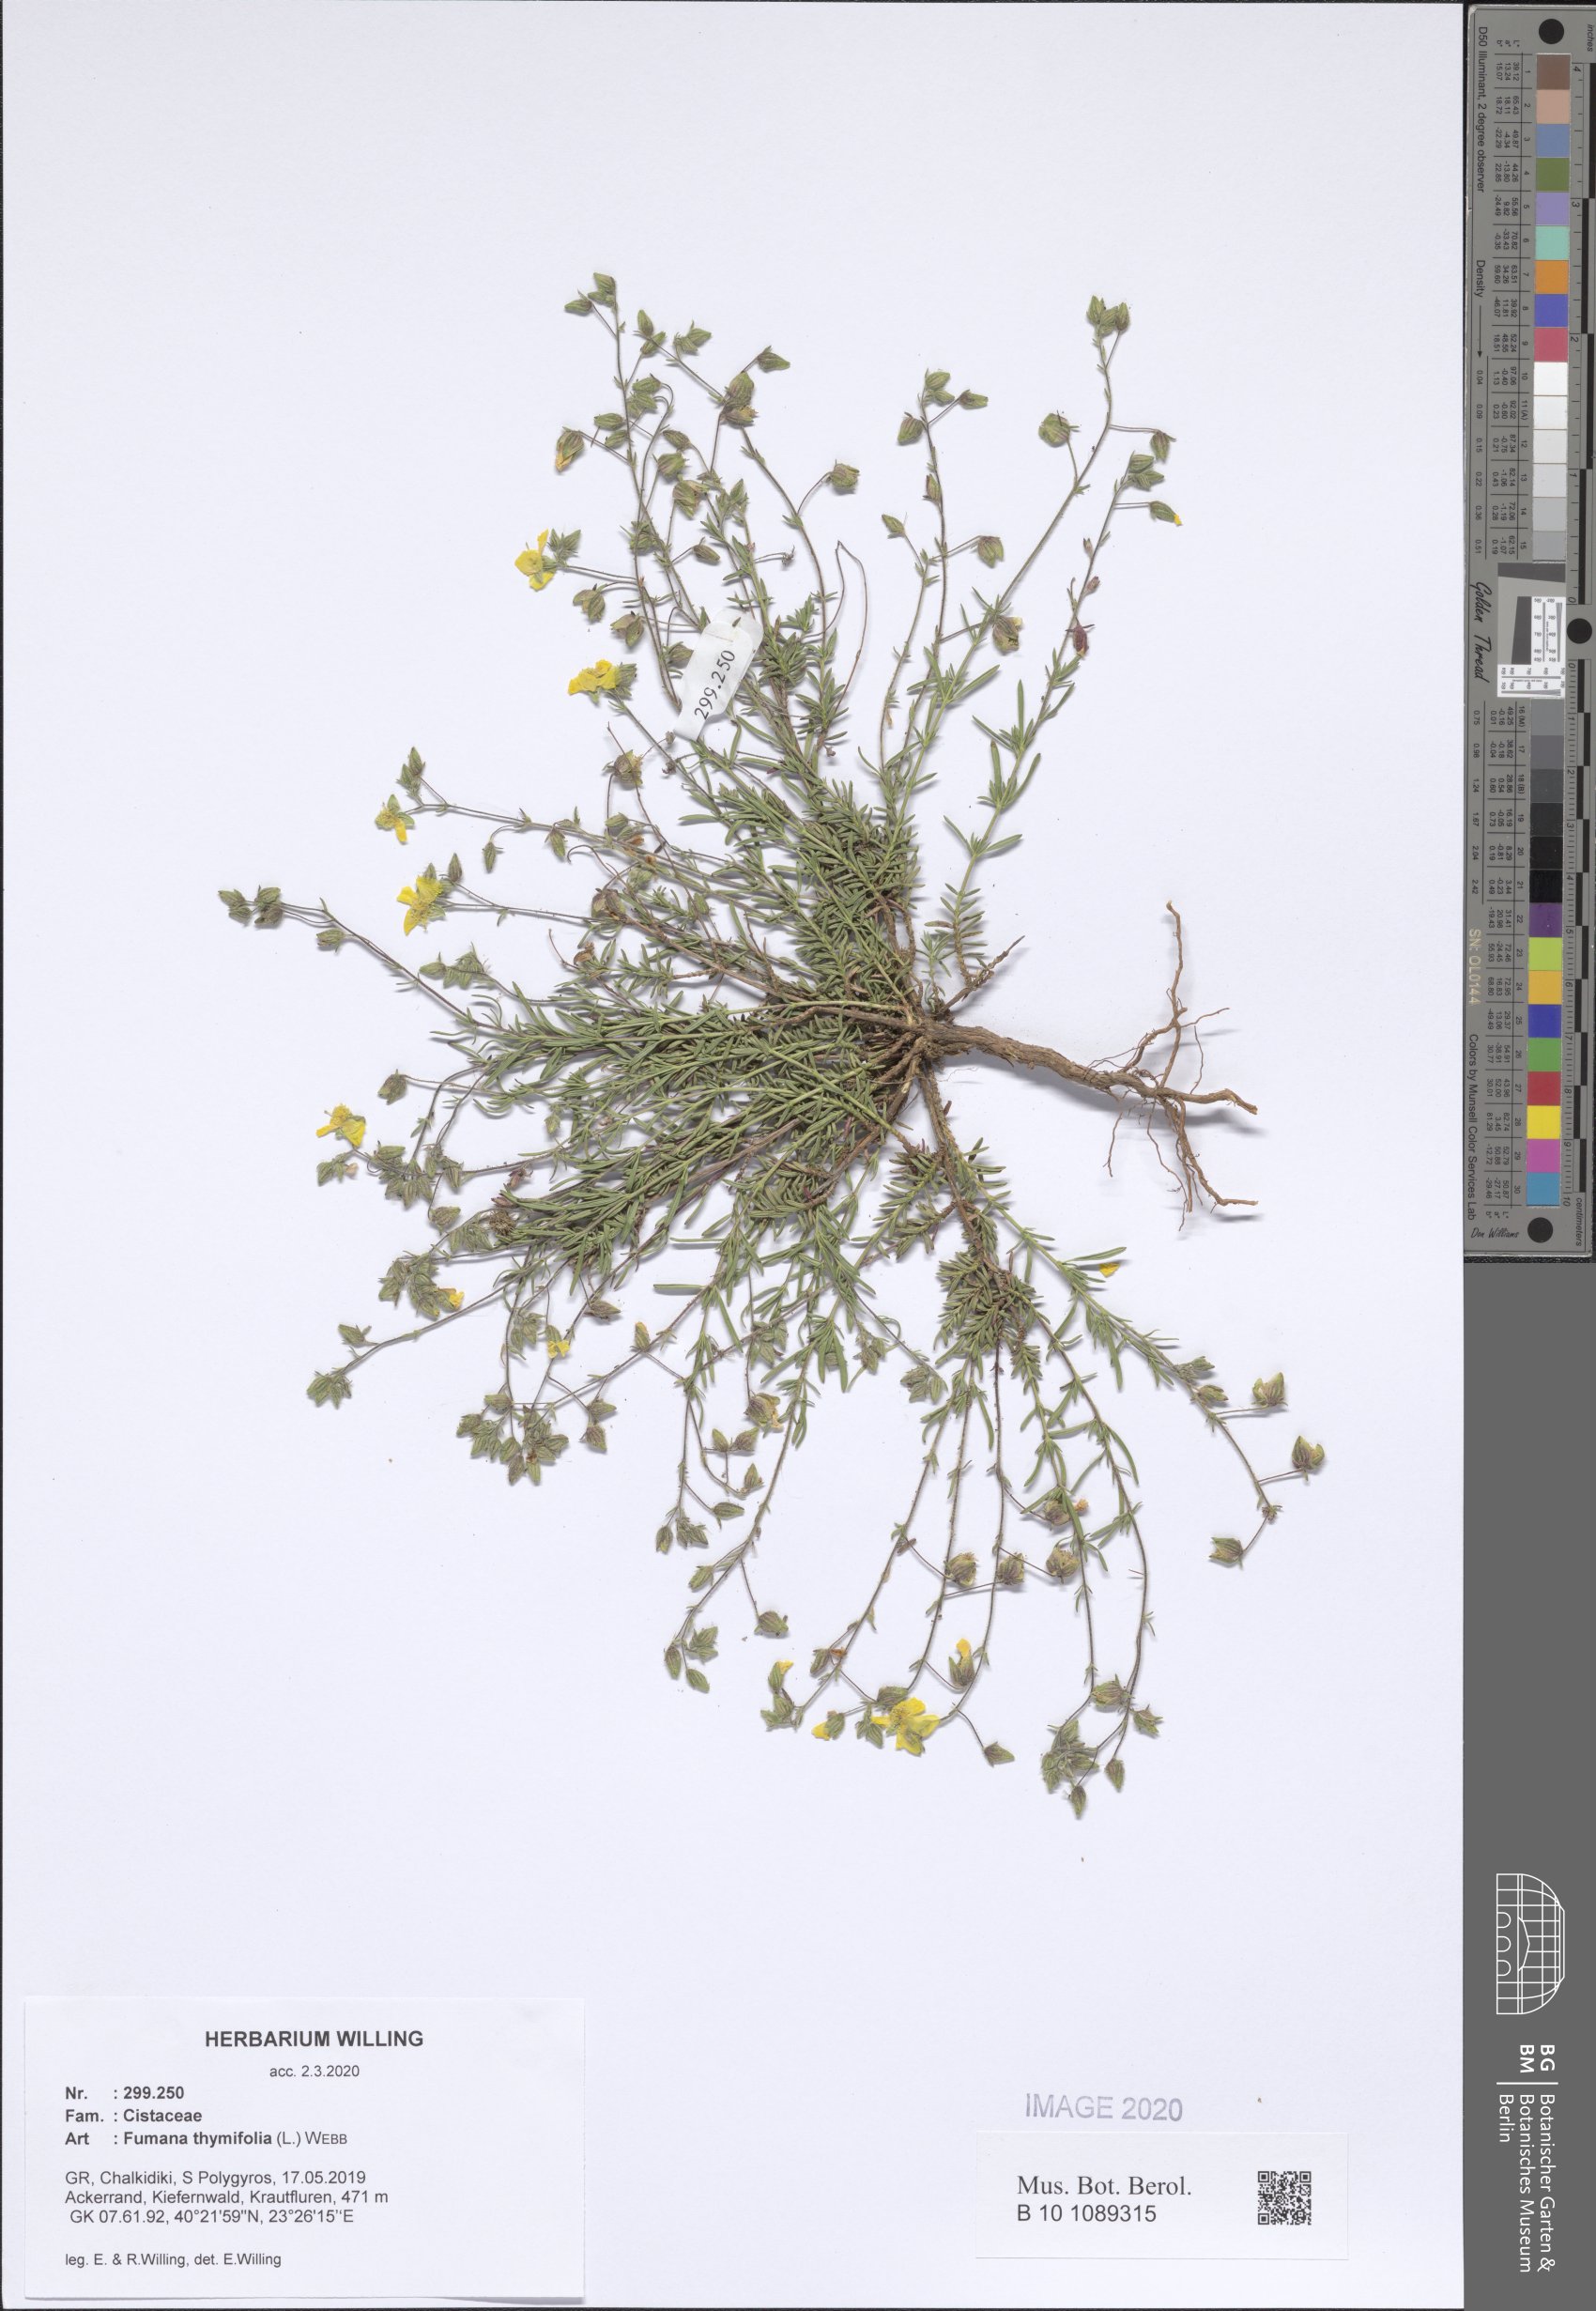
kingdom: Plantae
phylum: Tracheophyta
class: Magnoliopsida
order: Malvales
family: Cistaceae
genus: Fumana
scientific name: Fumana thymifolia
